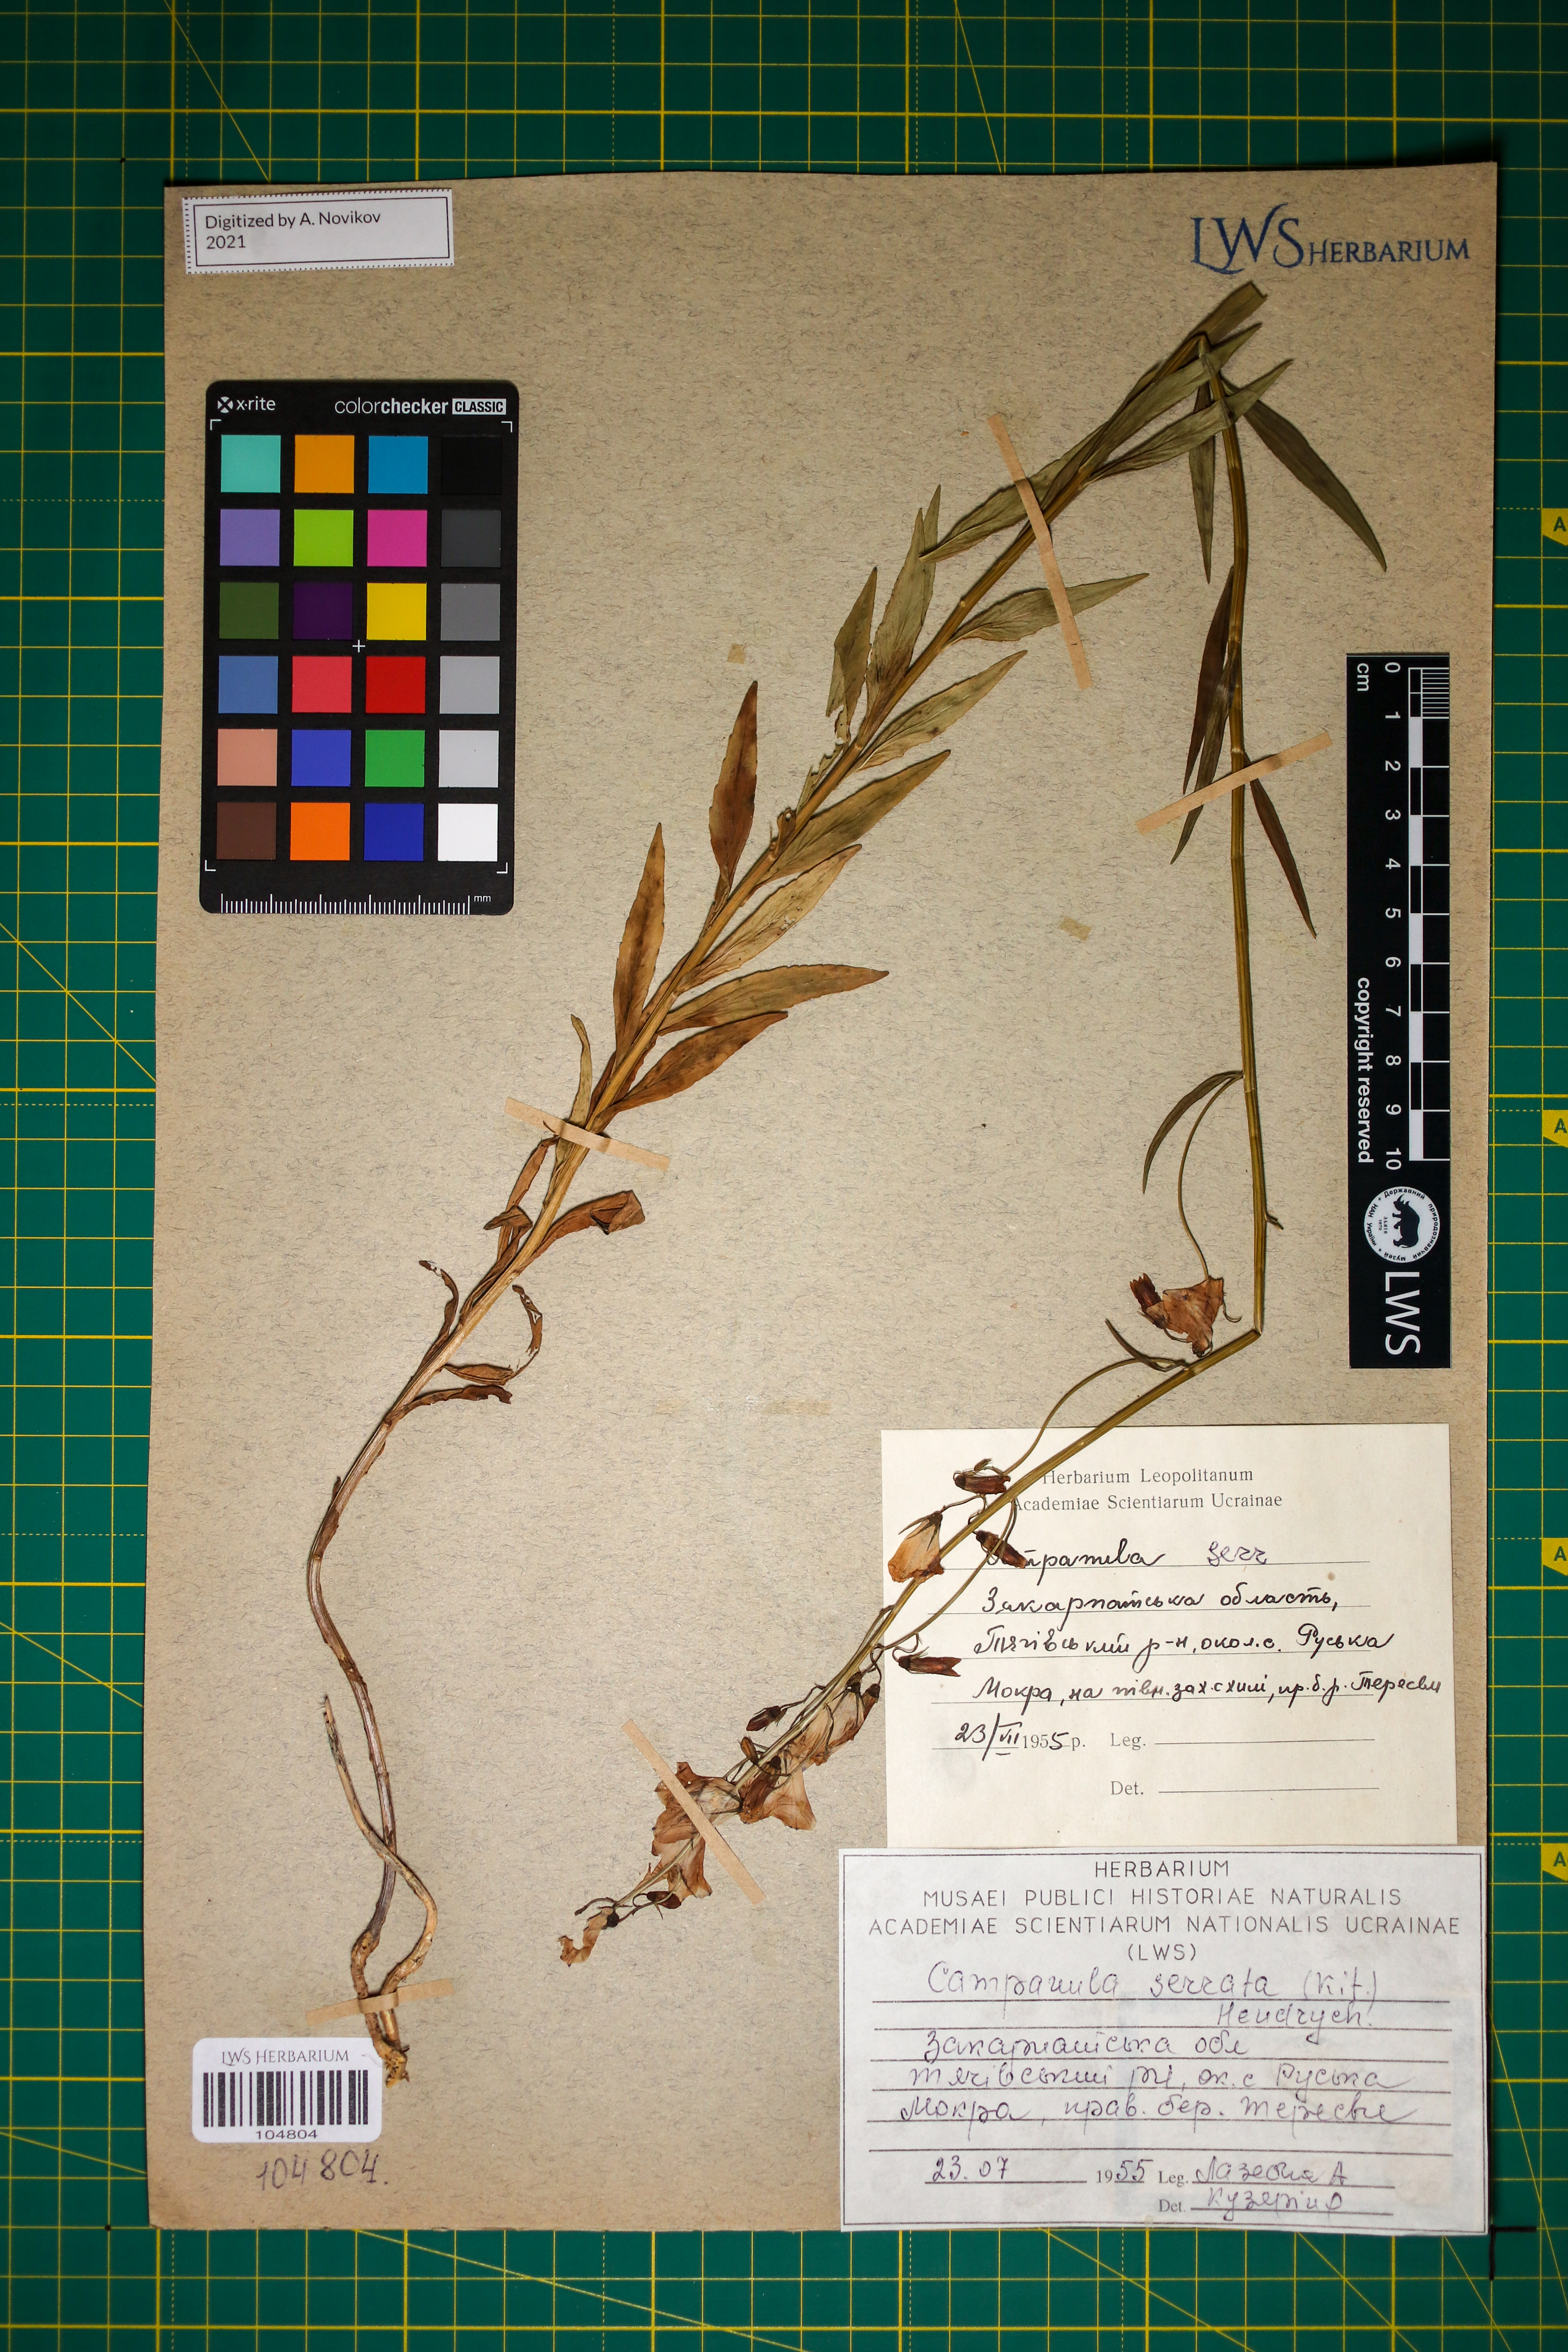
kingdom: Plantae
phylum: Tracheophyta
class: Magnoliopsida
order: Asterales
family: Campanulaceae
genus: Campanula
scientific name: Campanula serrata
